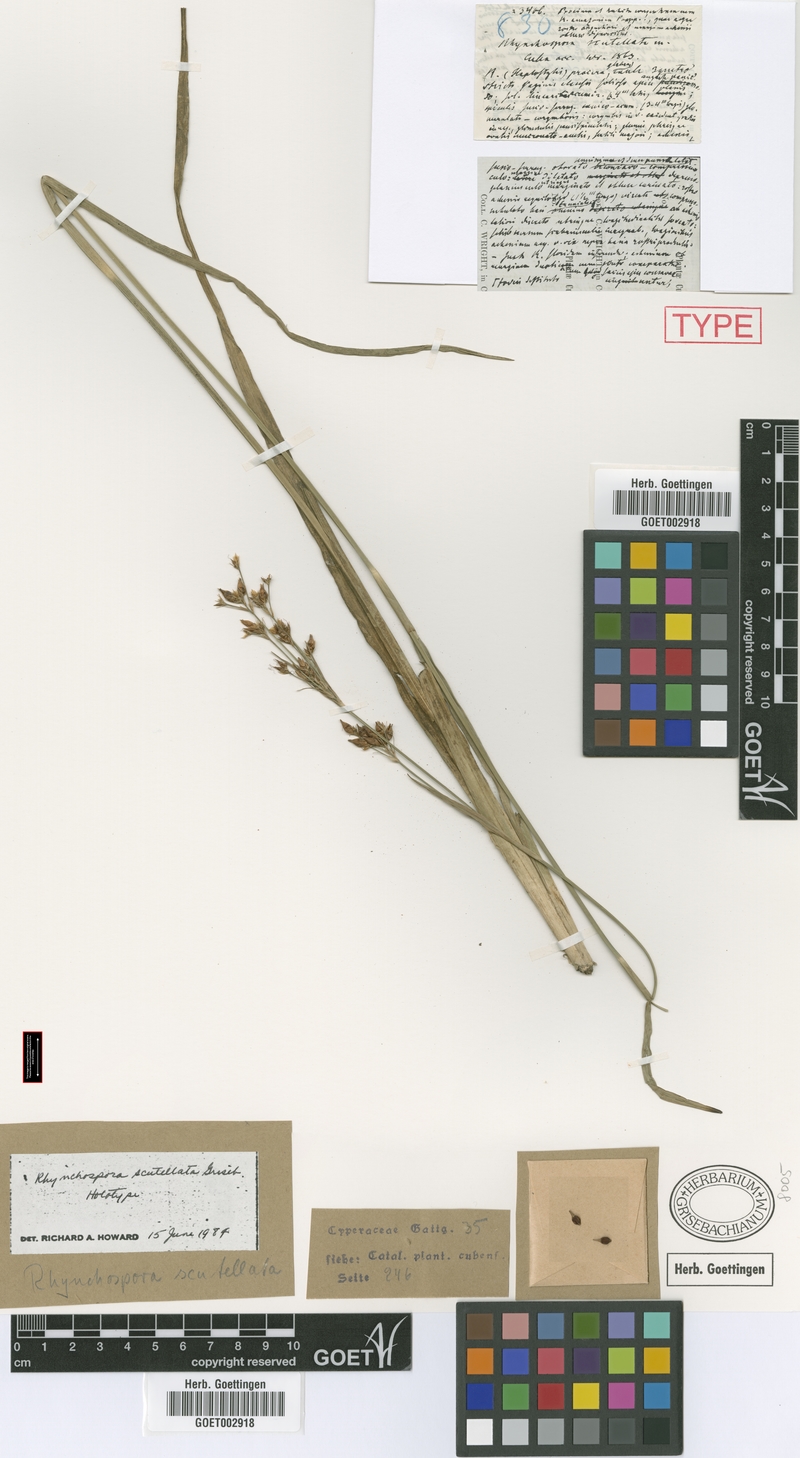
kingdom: Plantae
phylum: Tracheophyta
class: Liliopsida
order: Poales
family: Cyperaceae
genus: Rhynchospora
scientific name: Rhynchospora scutellata
